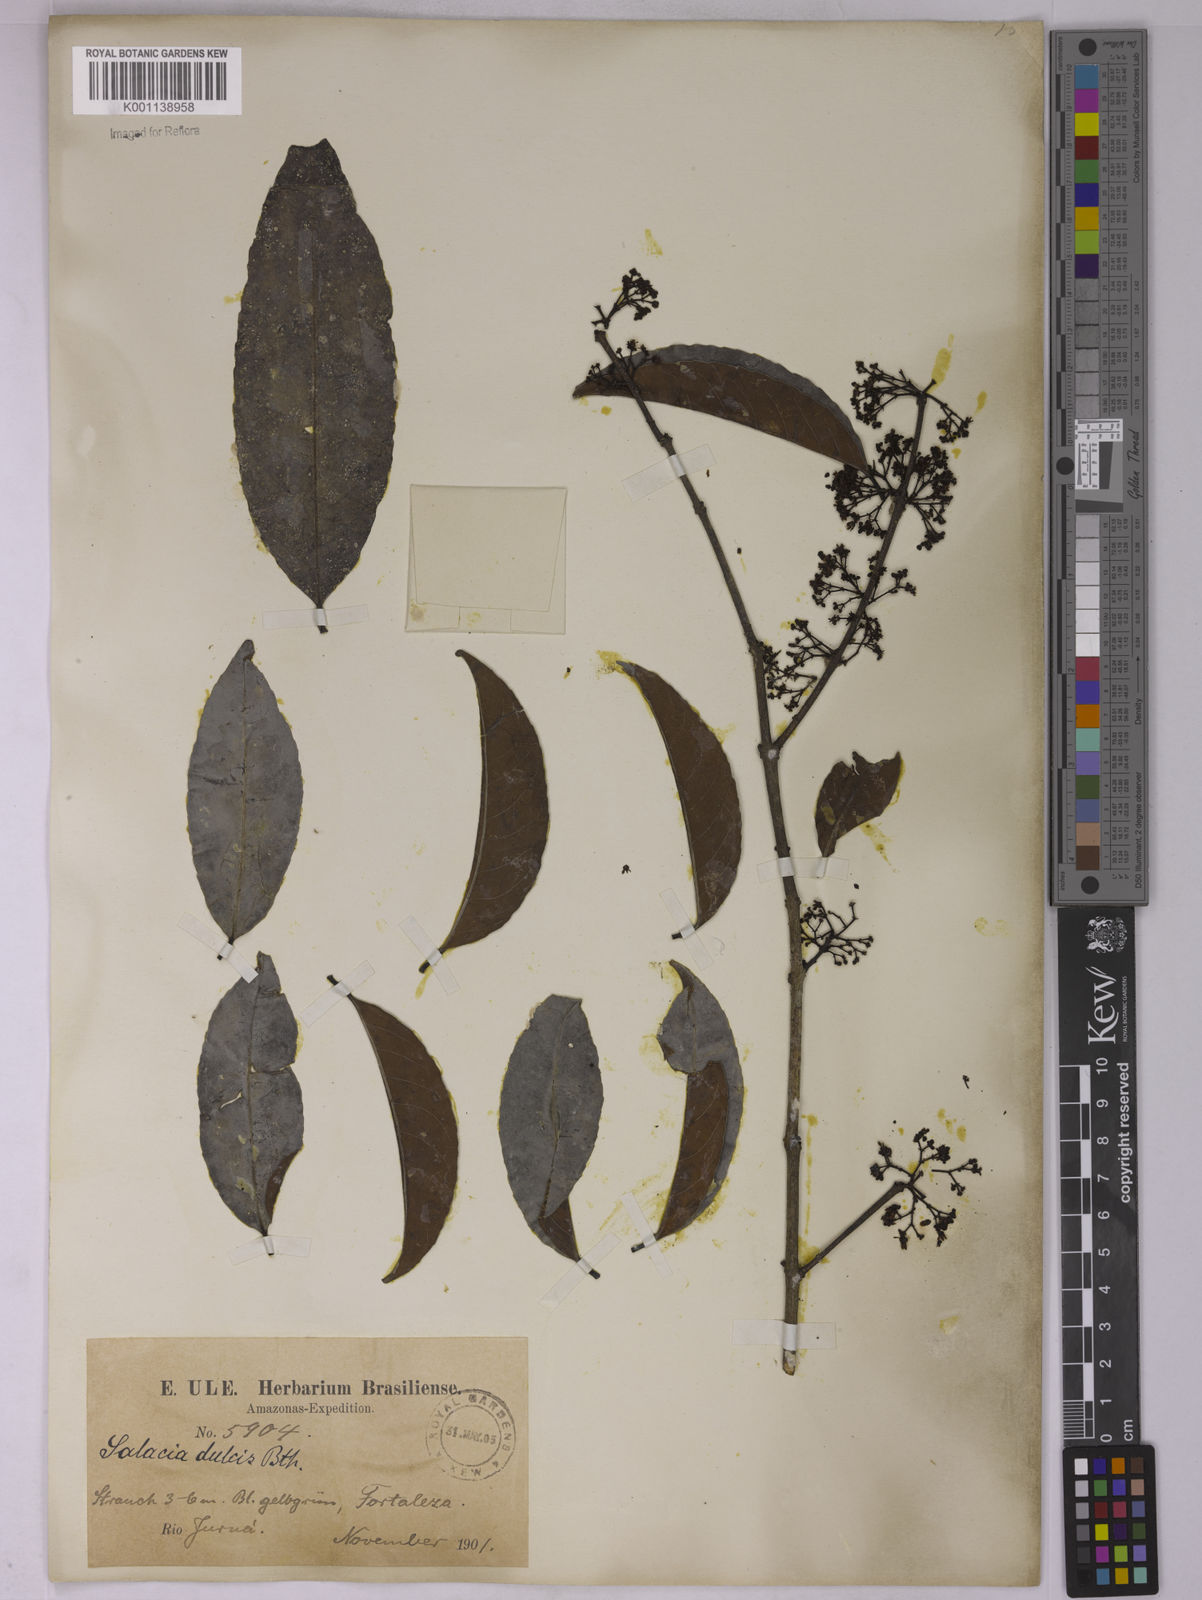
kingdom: Plantae
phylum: Tracheophyta
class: Magnoliopsida
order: Celastrales
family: Celastraceae
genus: Peritassa
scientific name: Peritassa dulcis
